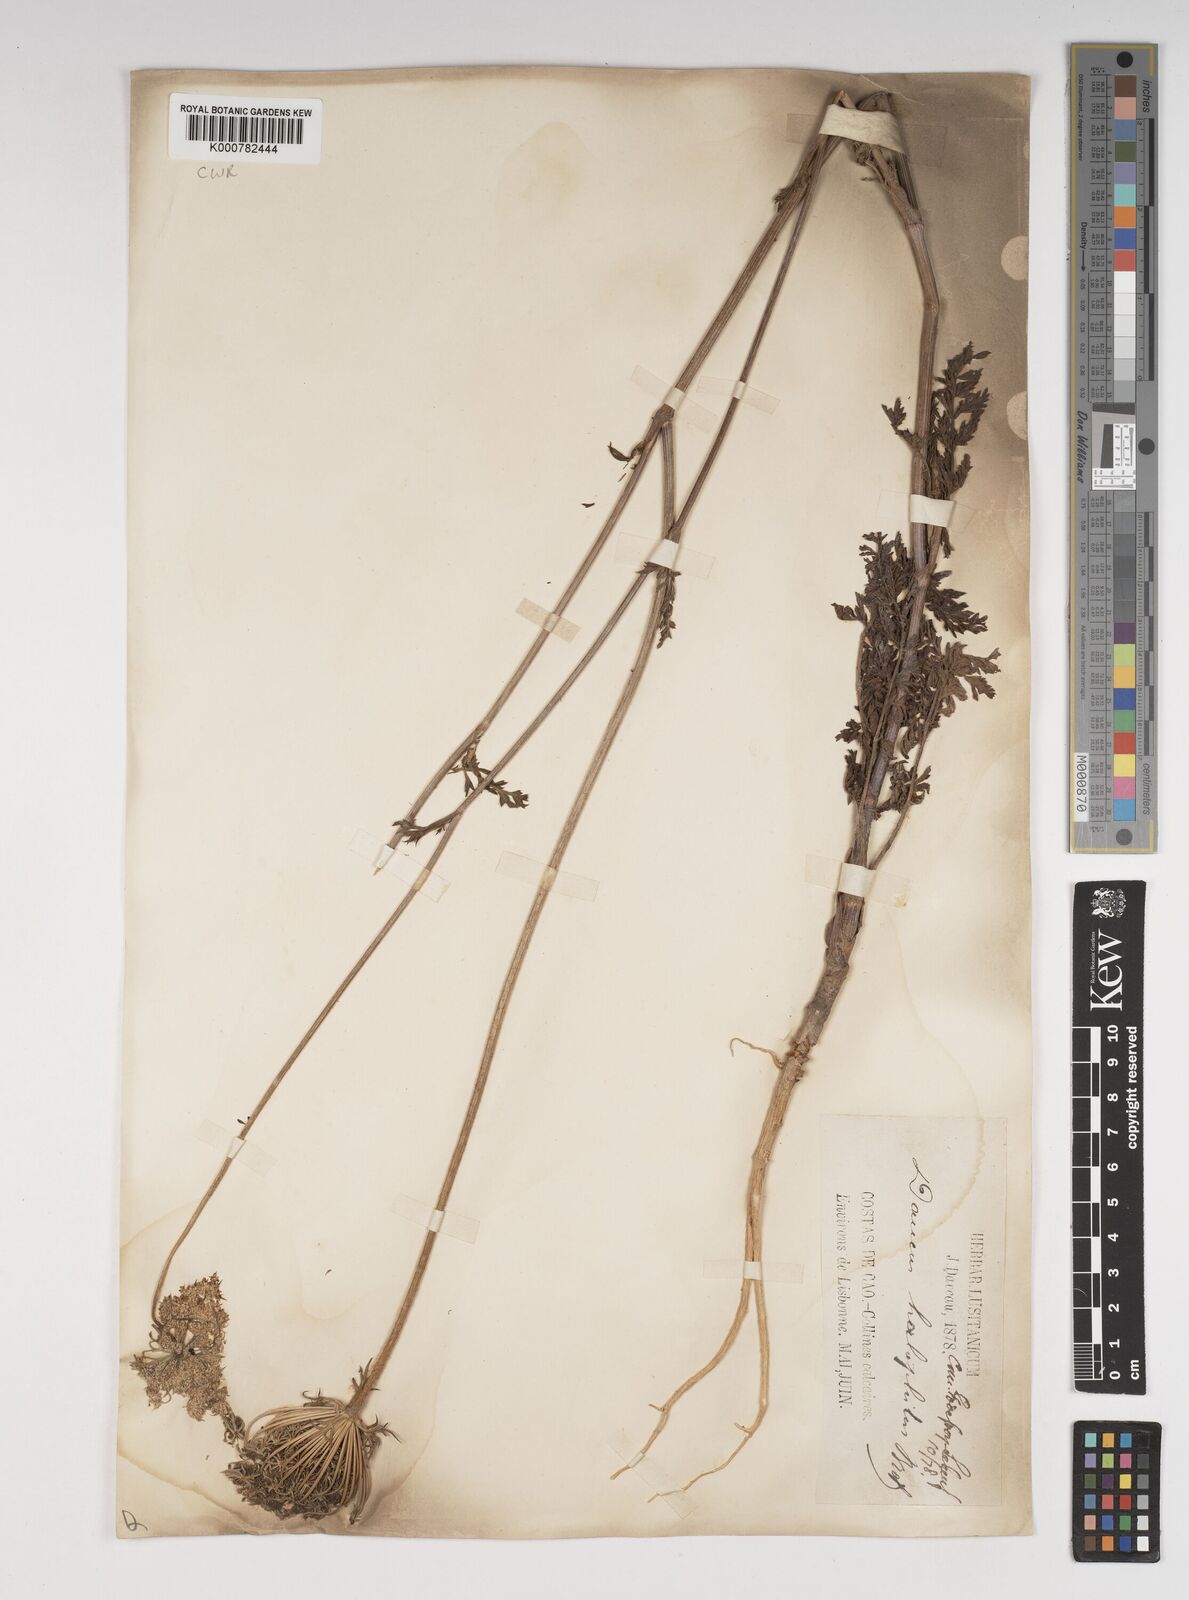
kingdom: Plantae
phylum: Tracheophyta
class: Magnoliopsida
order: Apiales
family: Apiaceae
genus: Daucus
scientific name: Daucus carota
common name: Wild carrot
